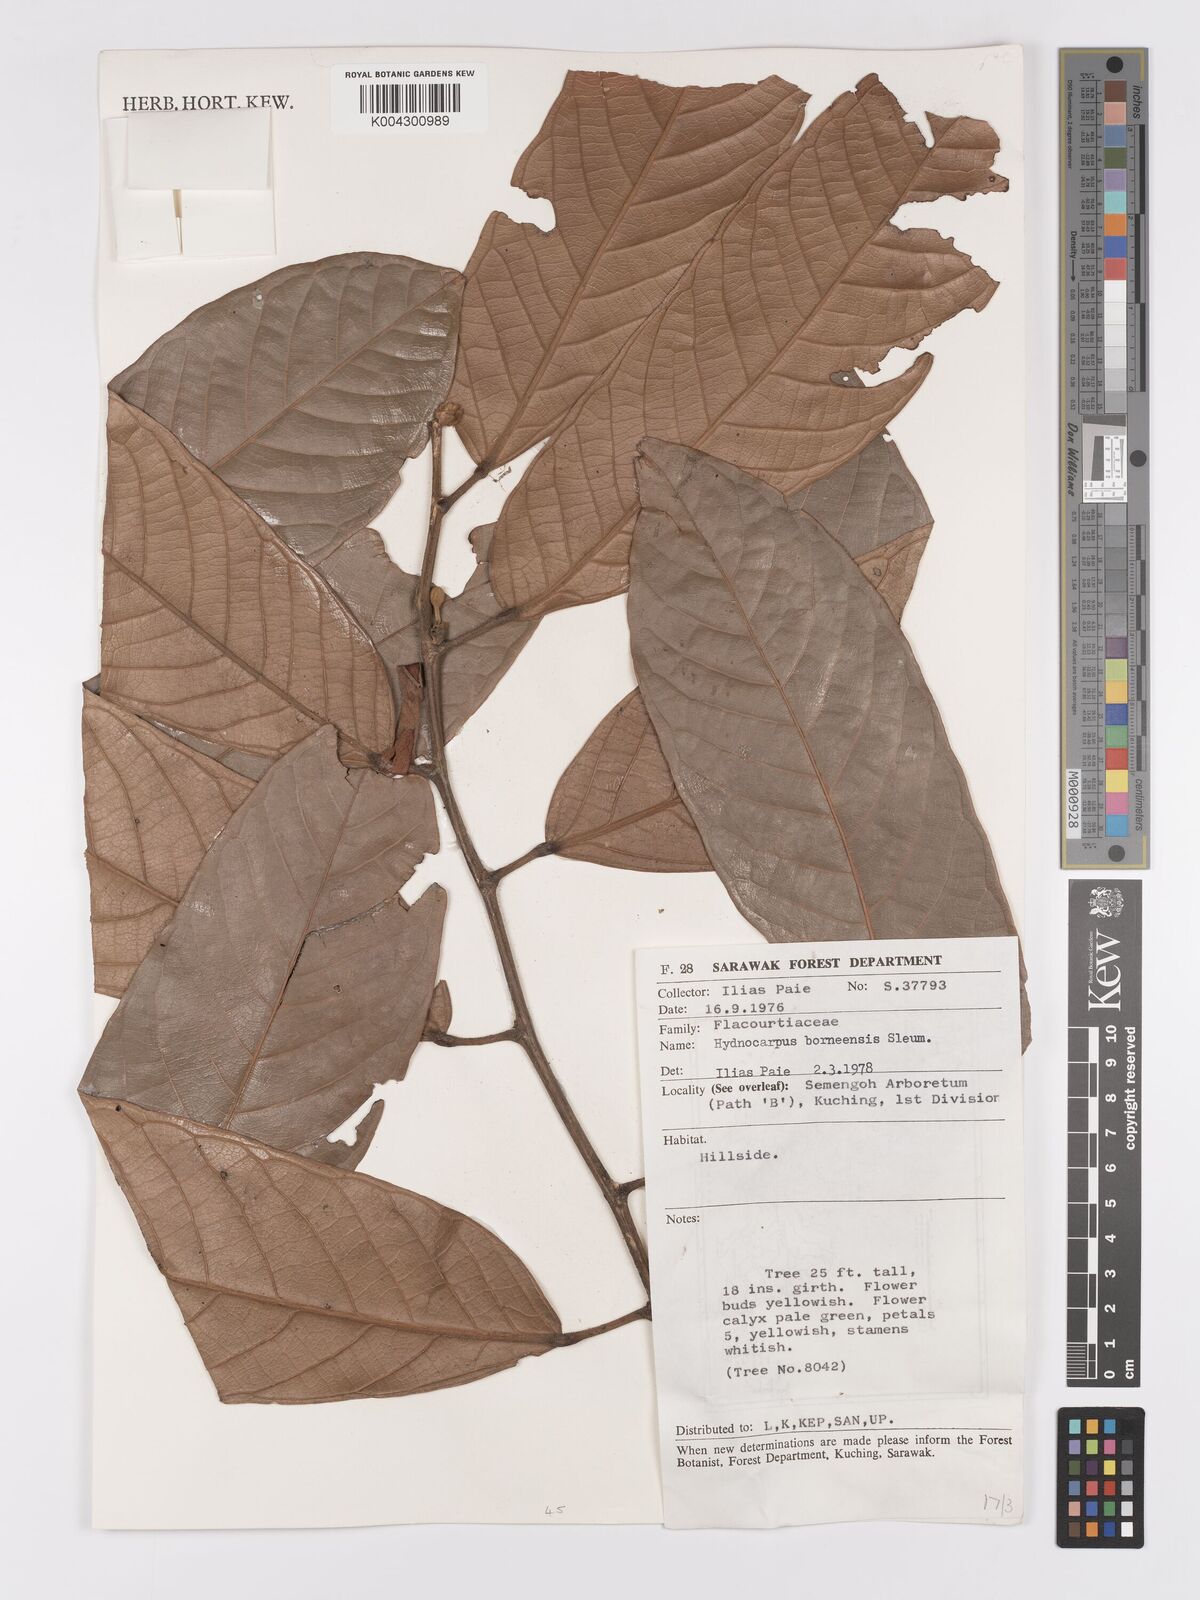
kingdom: Plantae
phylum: Tracheophyta
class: Magnoliopsida
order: Malpighiales
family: Achariaceae
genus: Hydnocarpus
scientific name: Hydnocarpus borneensis
